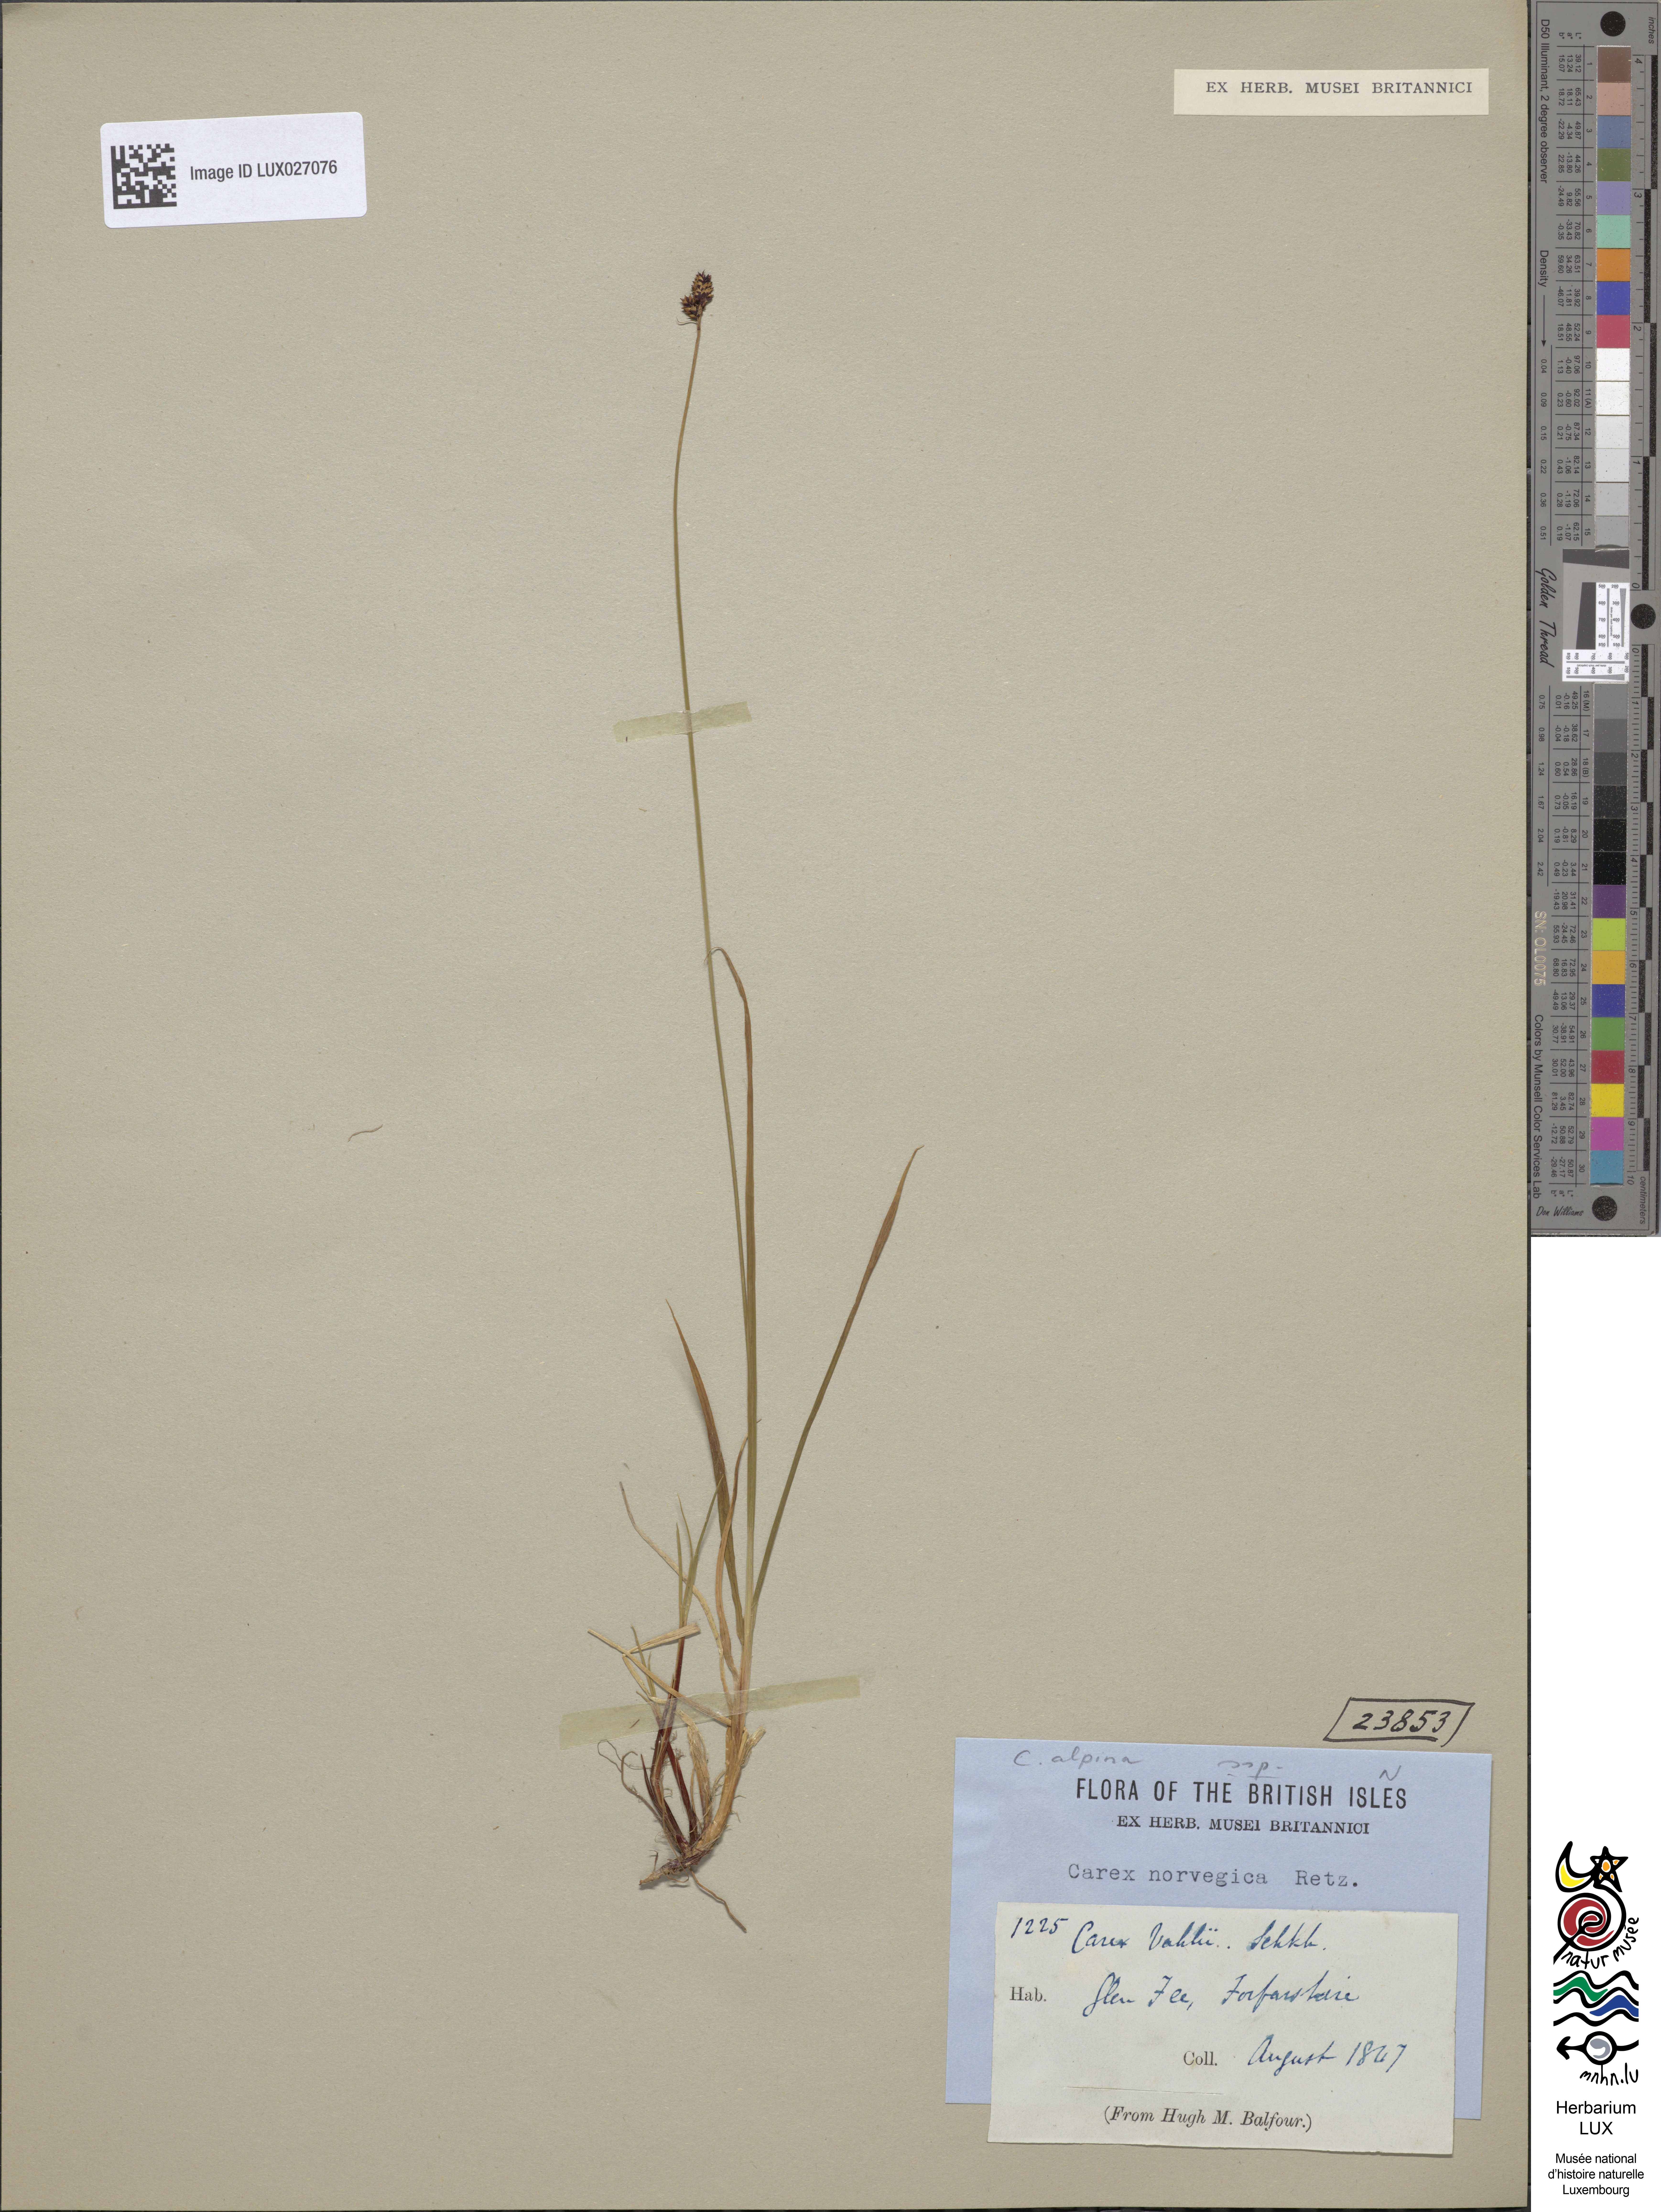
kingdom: Plantae
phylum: Tracheophyta
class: Liliopsida
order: Poales
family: Cyperaceae
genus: Carex
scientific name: Carex norvegica
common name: Close-headed alpine-sedge
